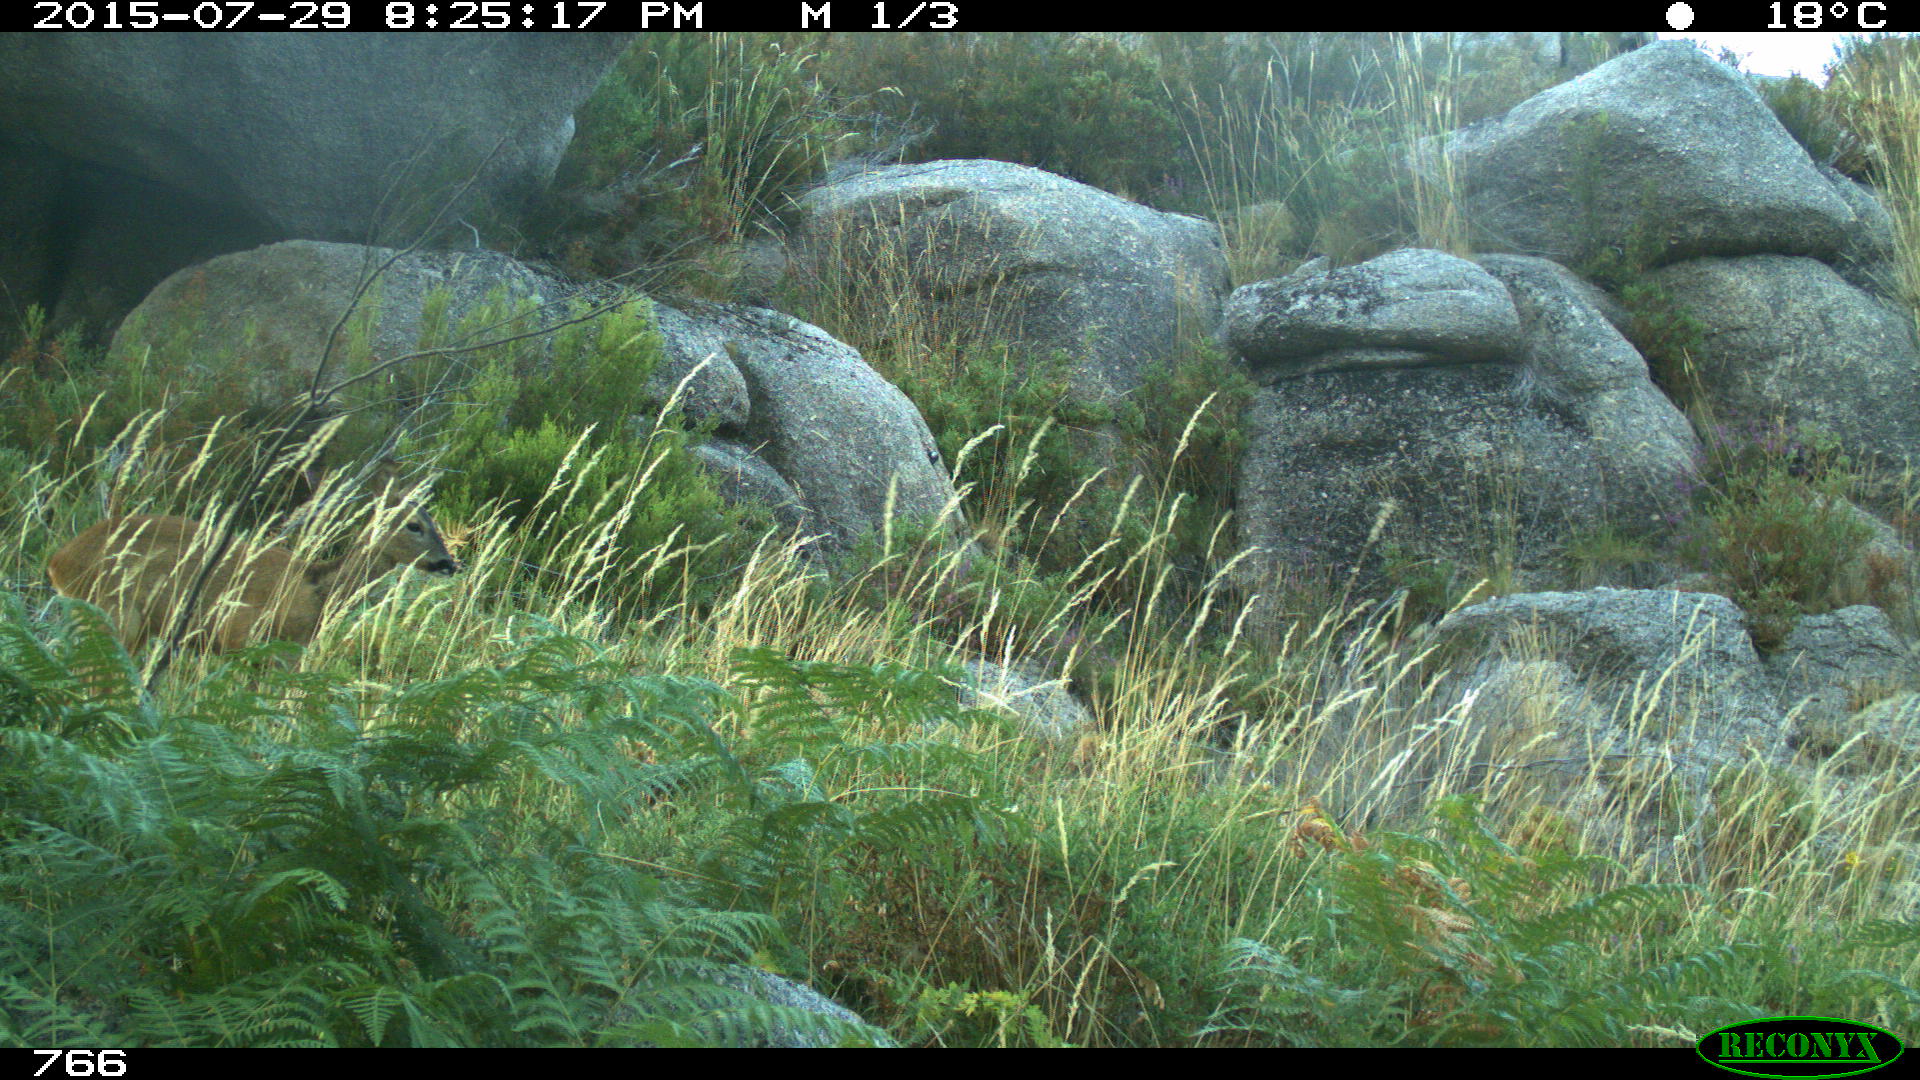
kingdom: Animalia
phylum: Chordata
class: Mammalia
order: Artiodactyla
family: Cervidae
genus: Capreolus
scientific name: Capreolus capreolus
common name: Western roe deer
